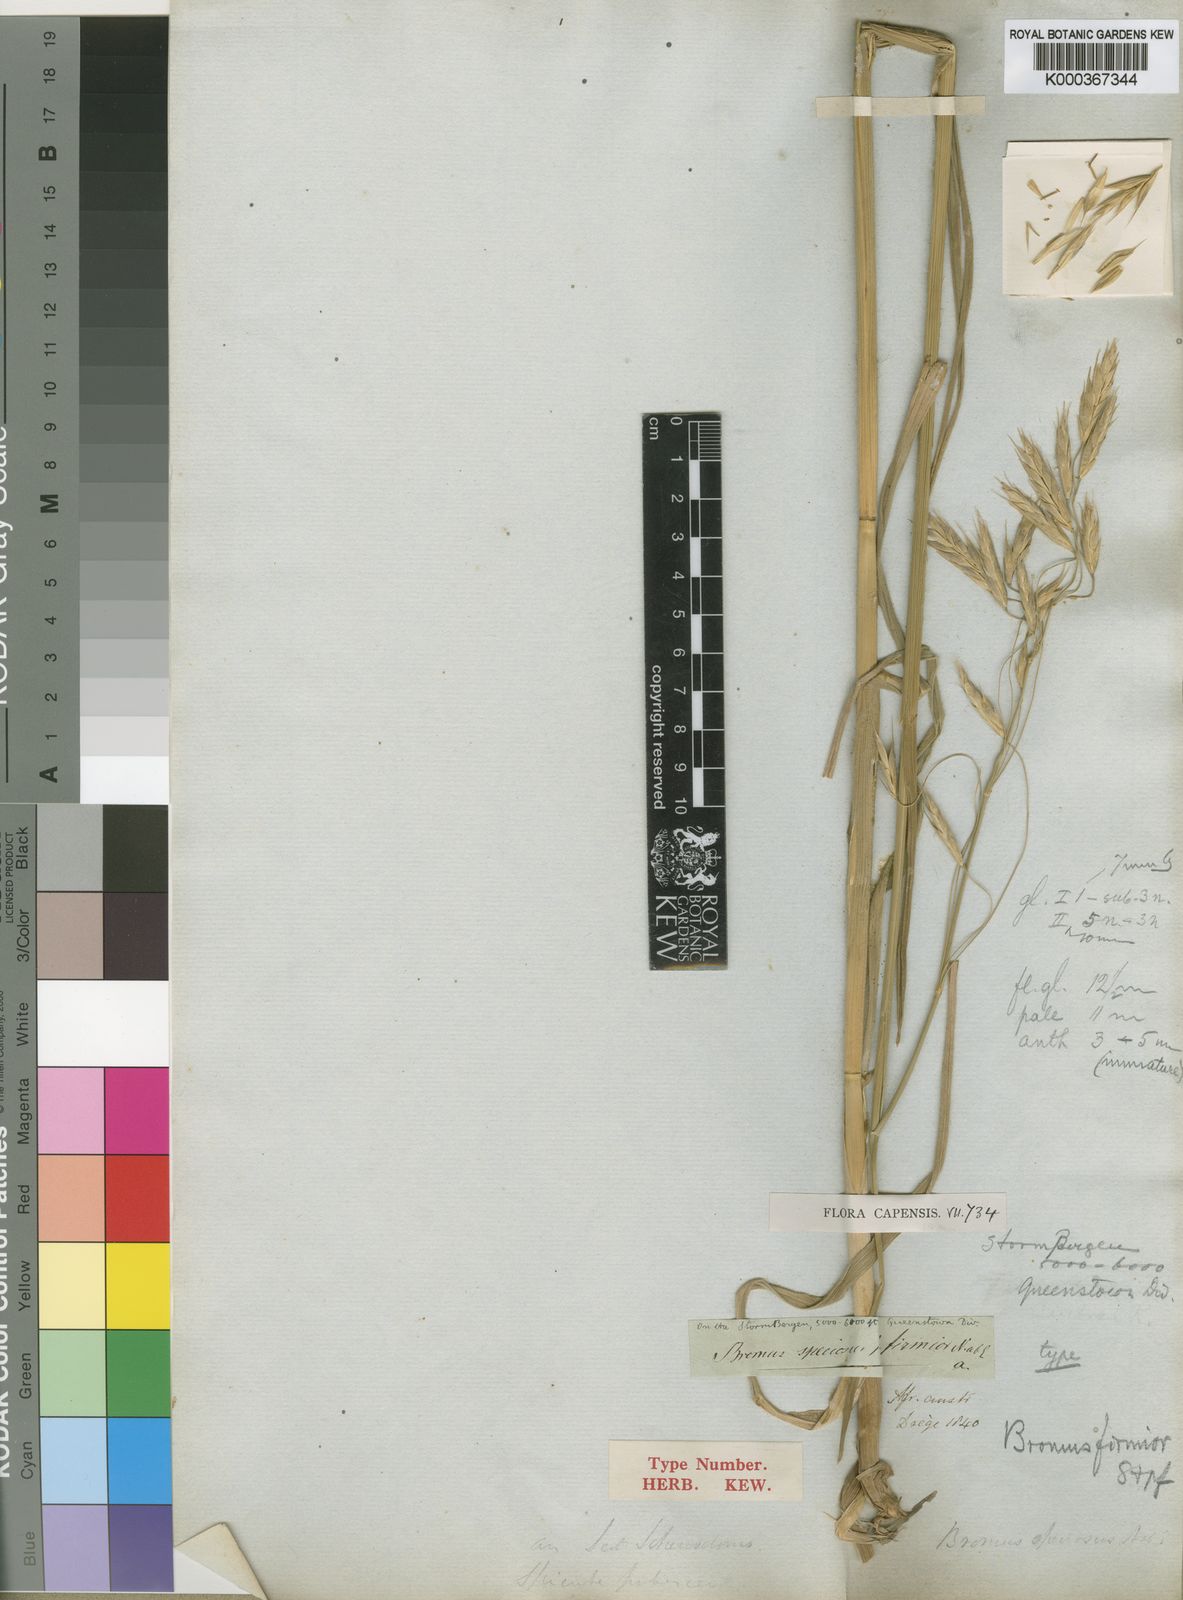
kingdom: Plantae
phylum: Tracheophyta
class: Liliopsida
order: Poales
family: Poaceae
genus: Bromus
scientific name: Bromus firmior
